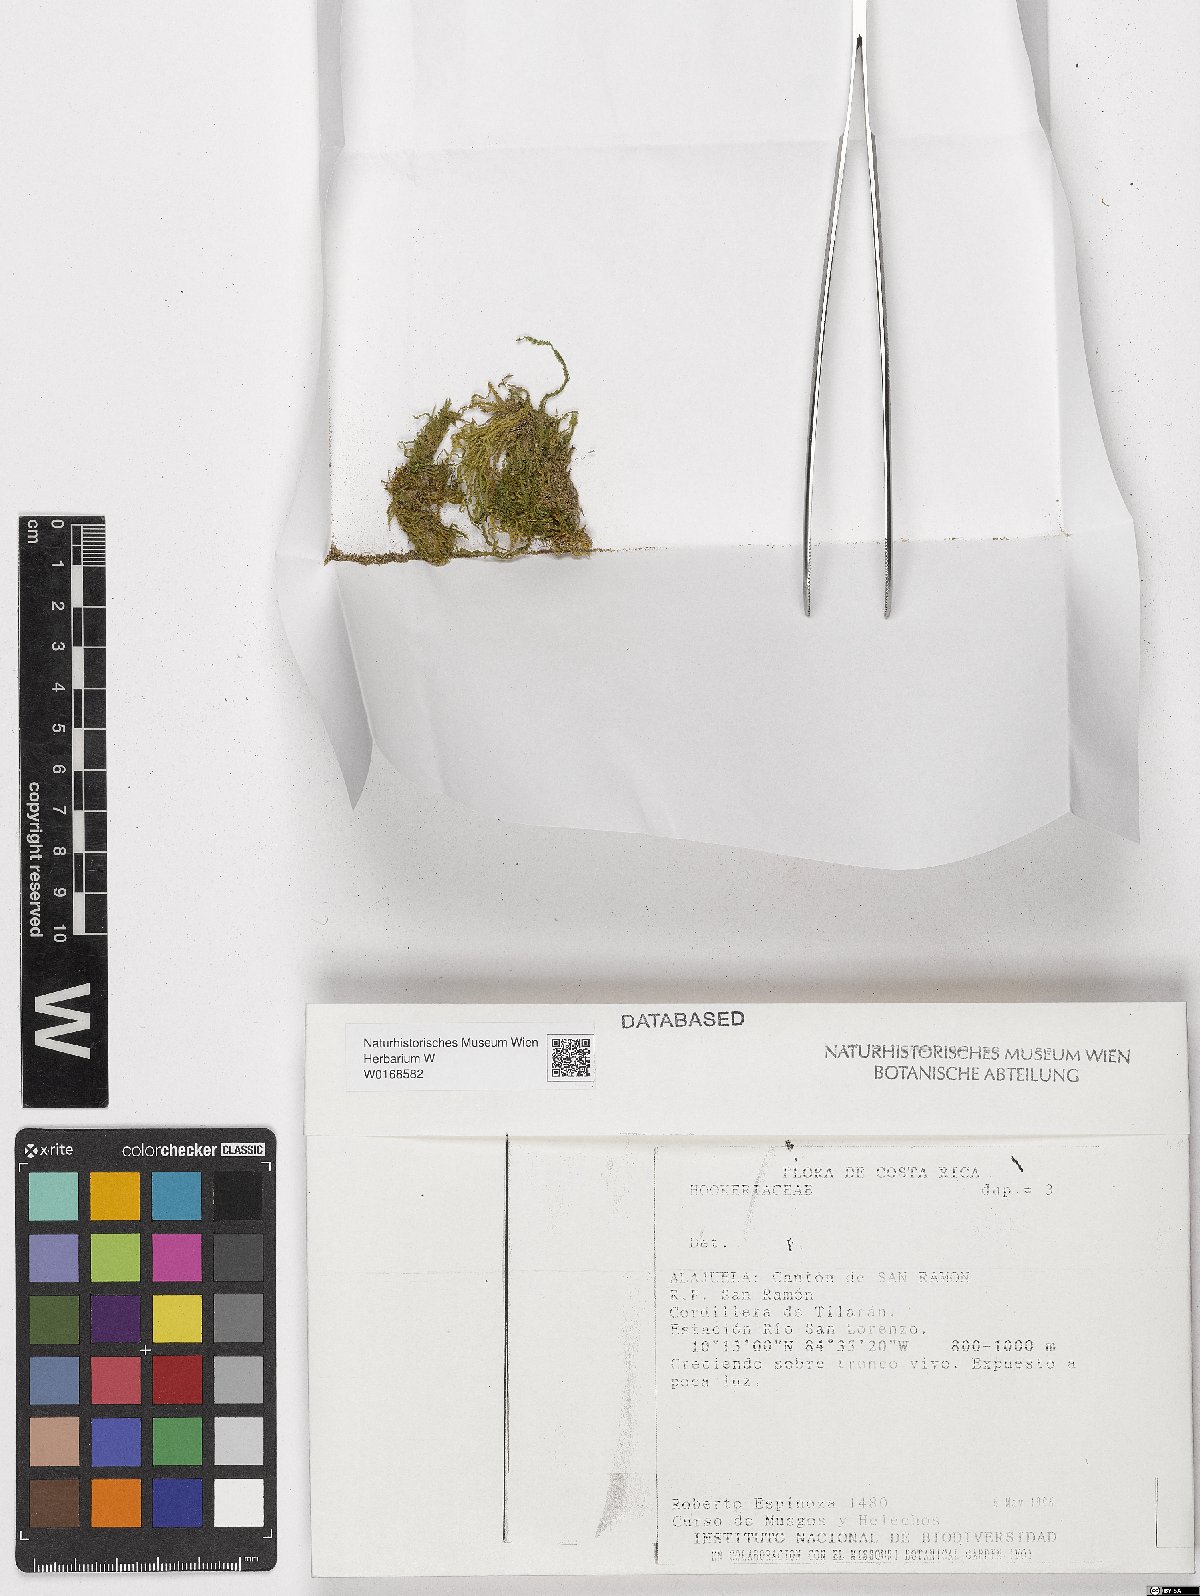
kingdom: Plantae
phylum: Bryophyta
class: Bryopsida
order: Hookeriales
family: Hookeriaceae
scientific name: Hookeriaceae
